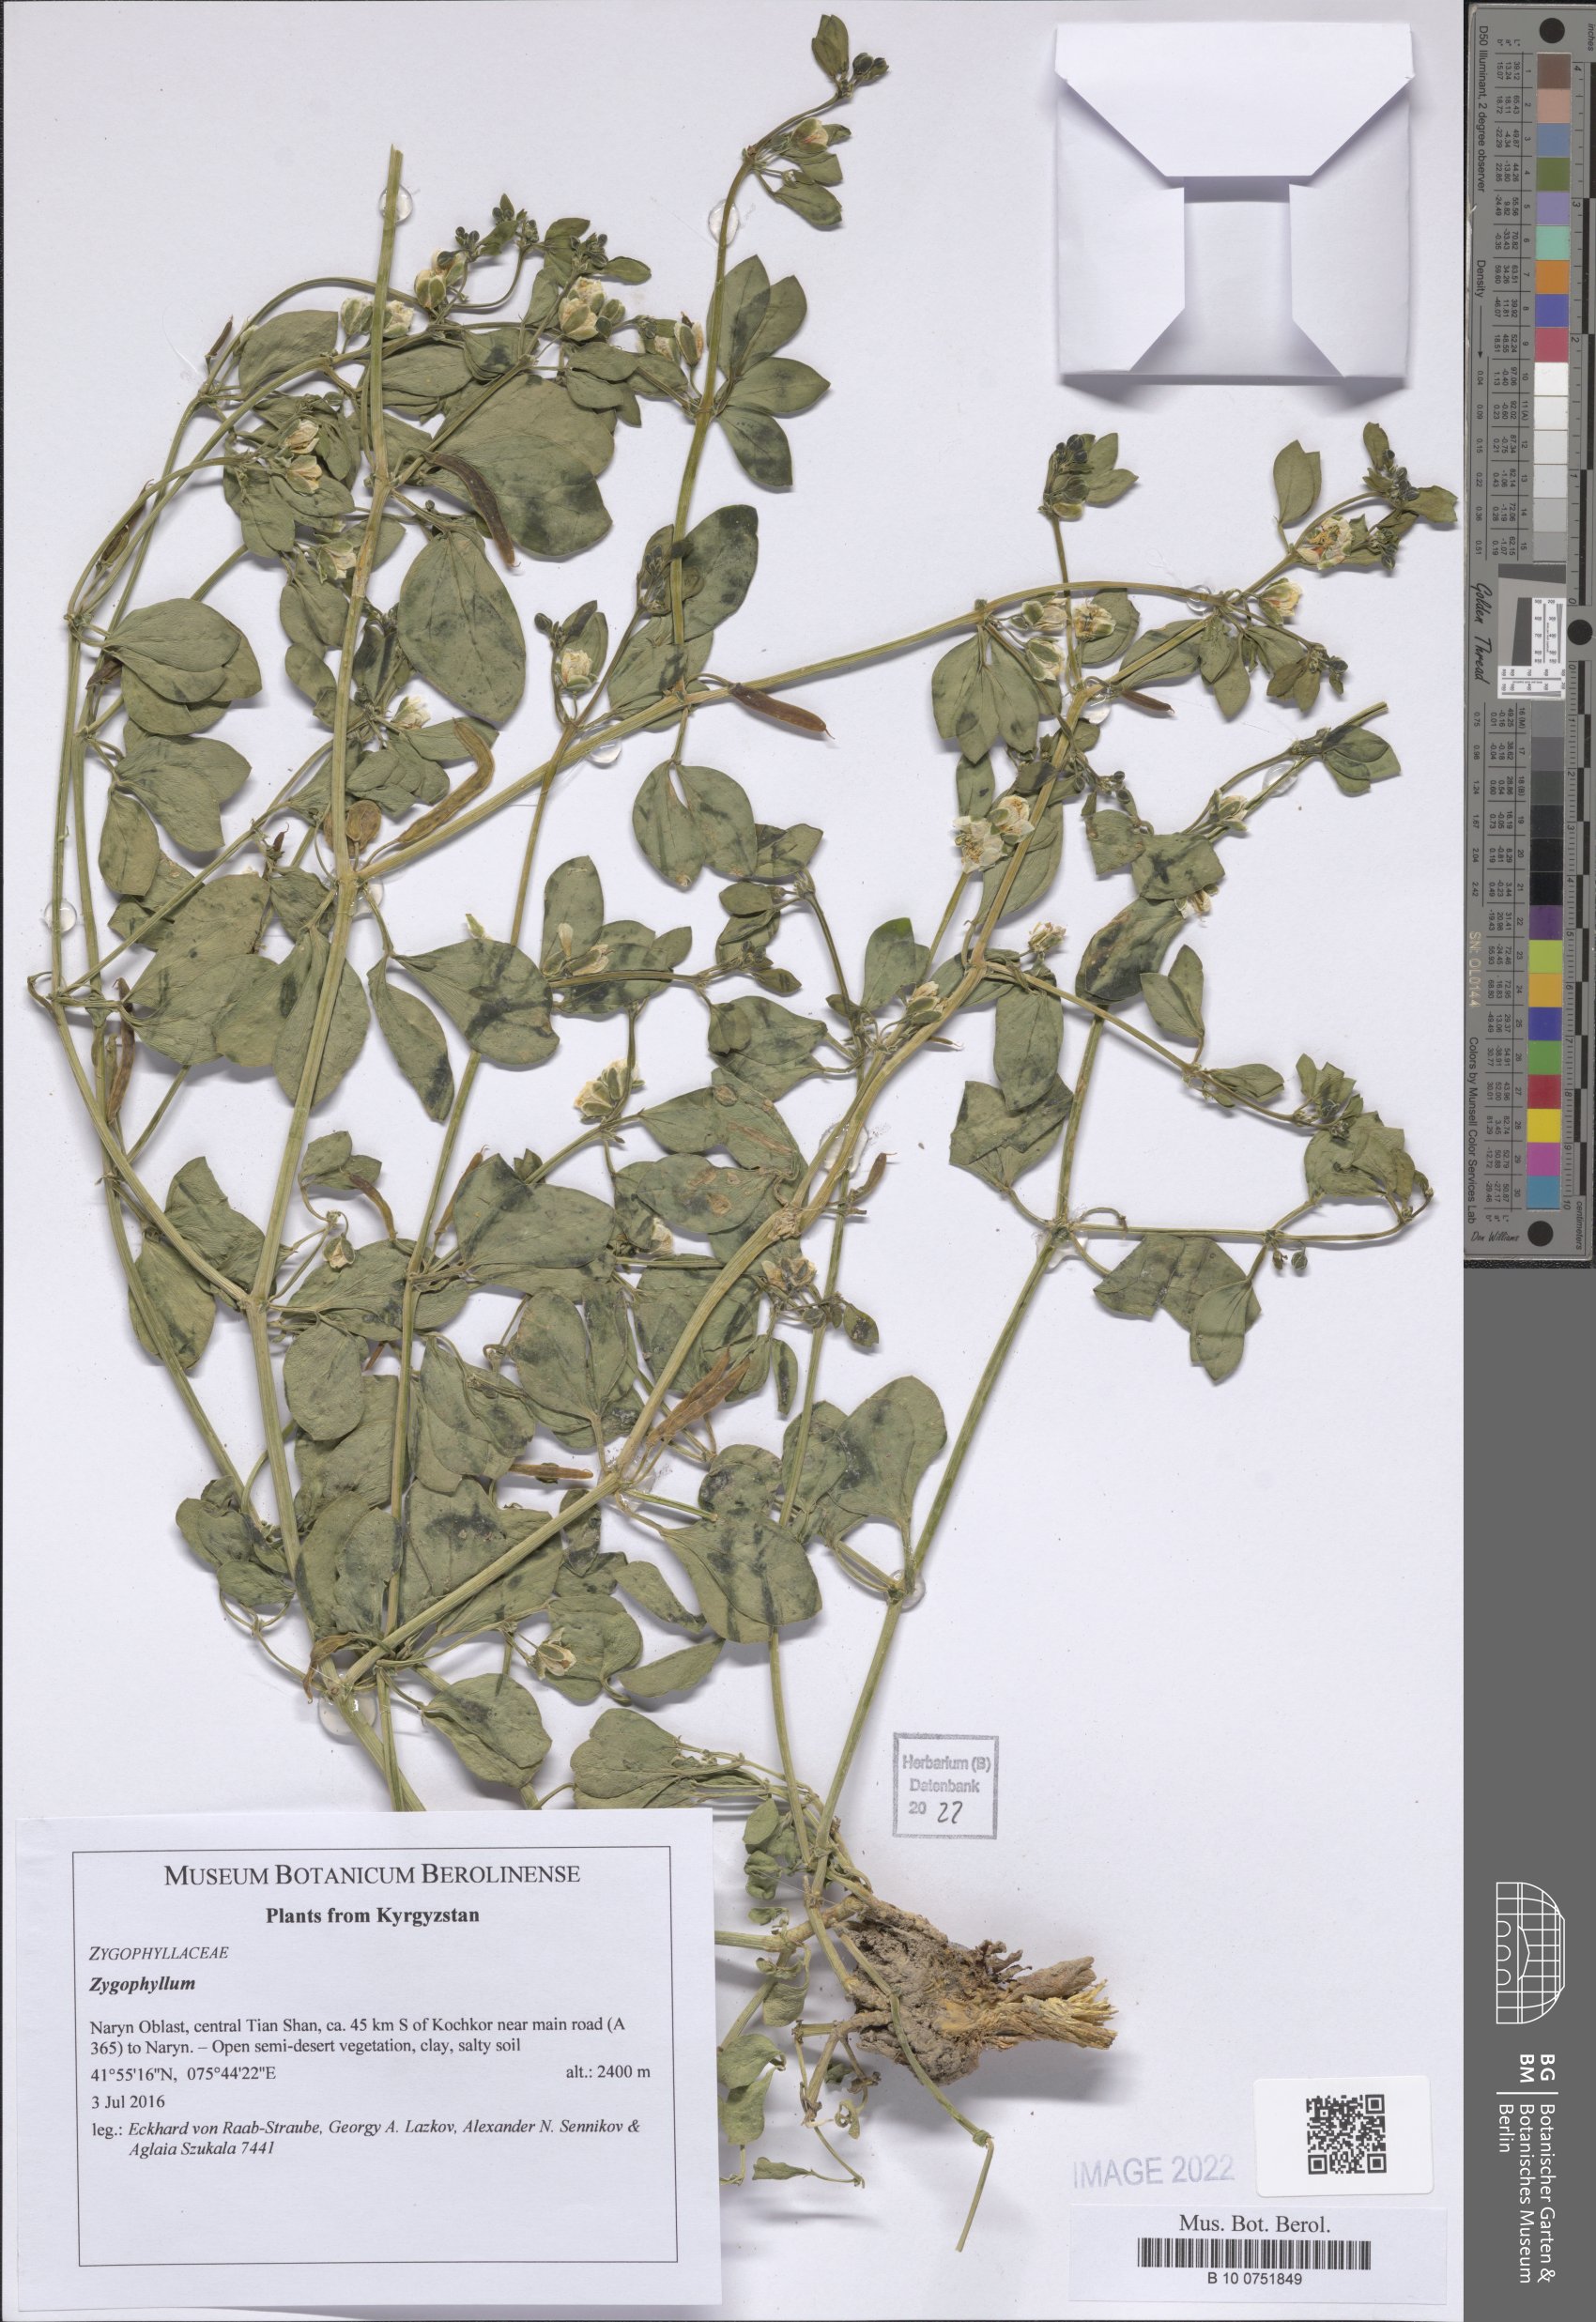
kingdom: Plantae
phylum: Tracheophyta
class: Magnoliopsida
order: Zygophyllales
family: Zygophyllaceae
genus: Zygophyllum
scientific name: Zygophyllum
